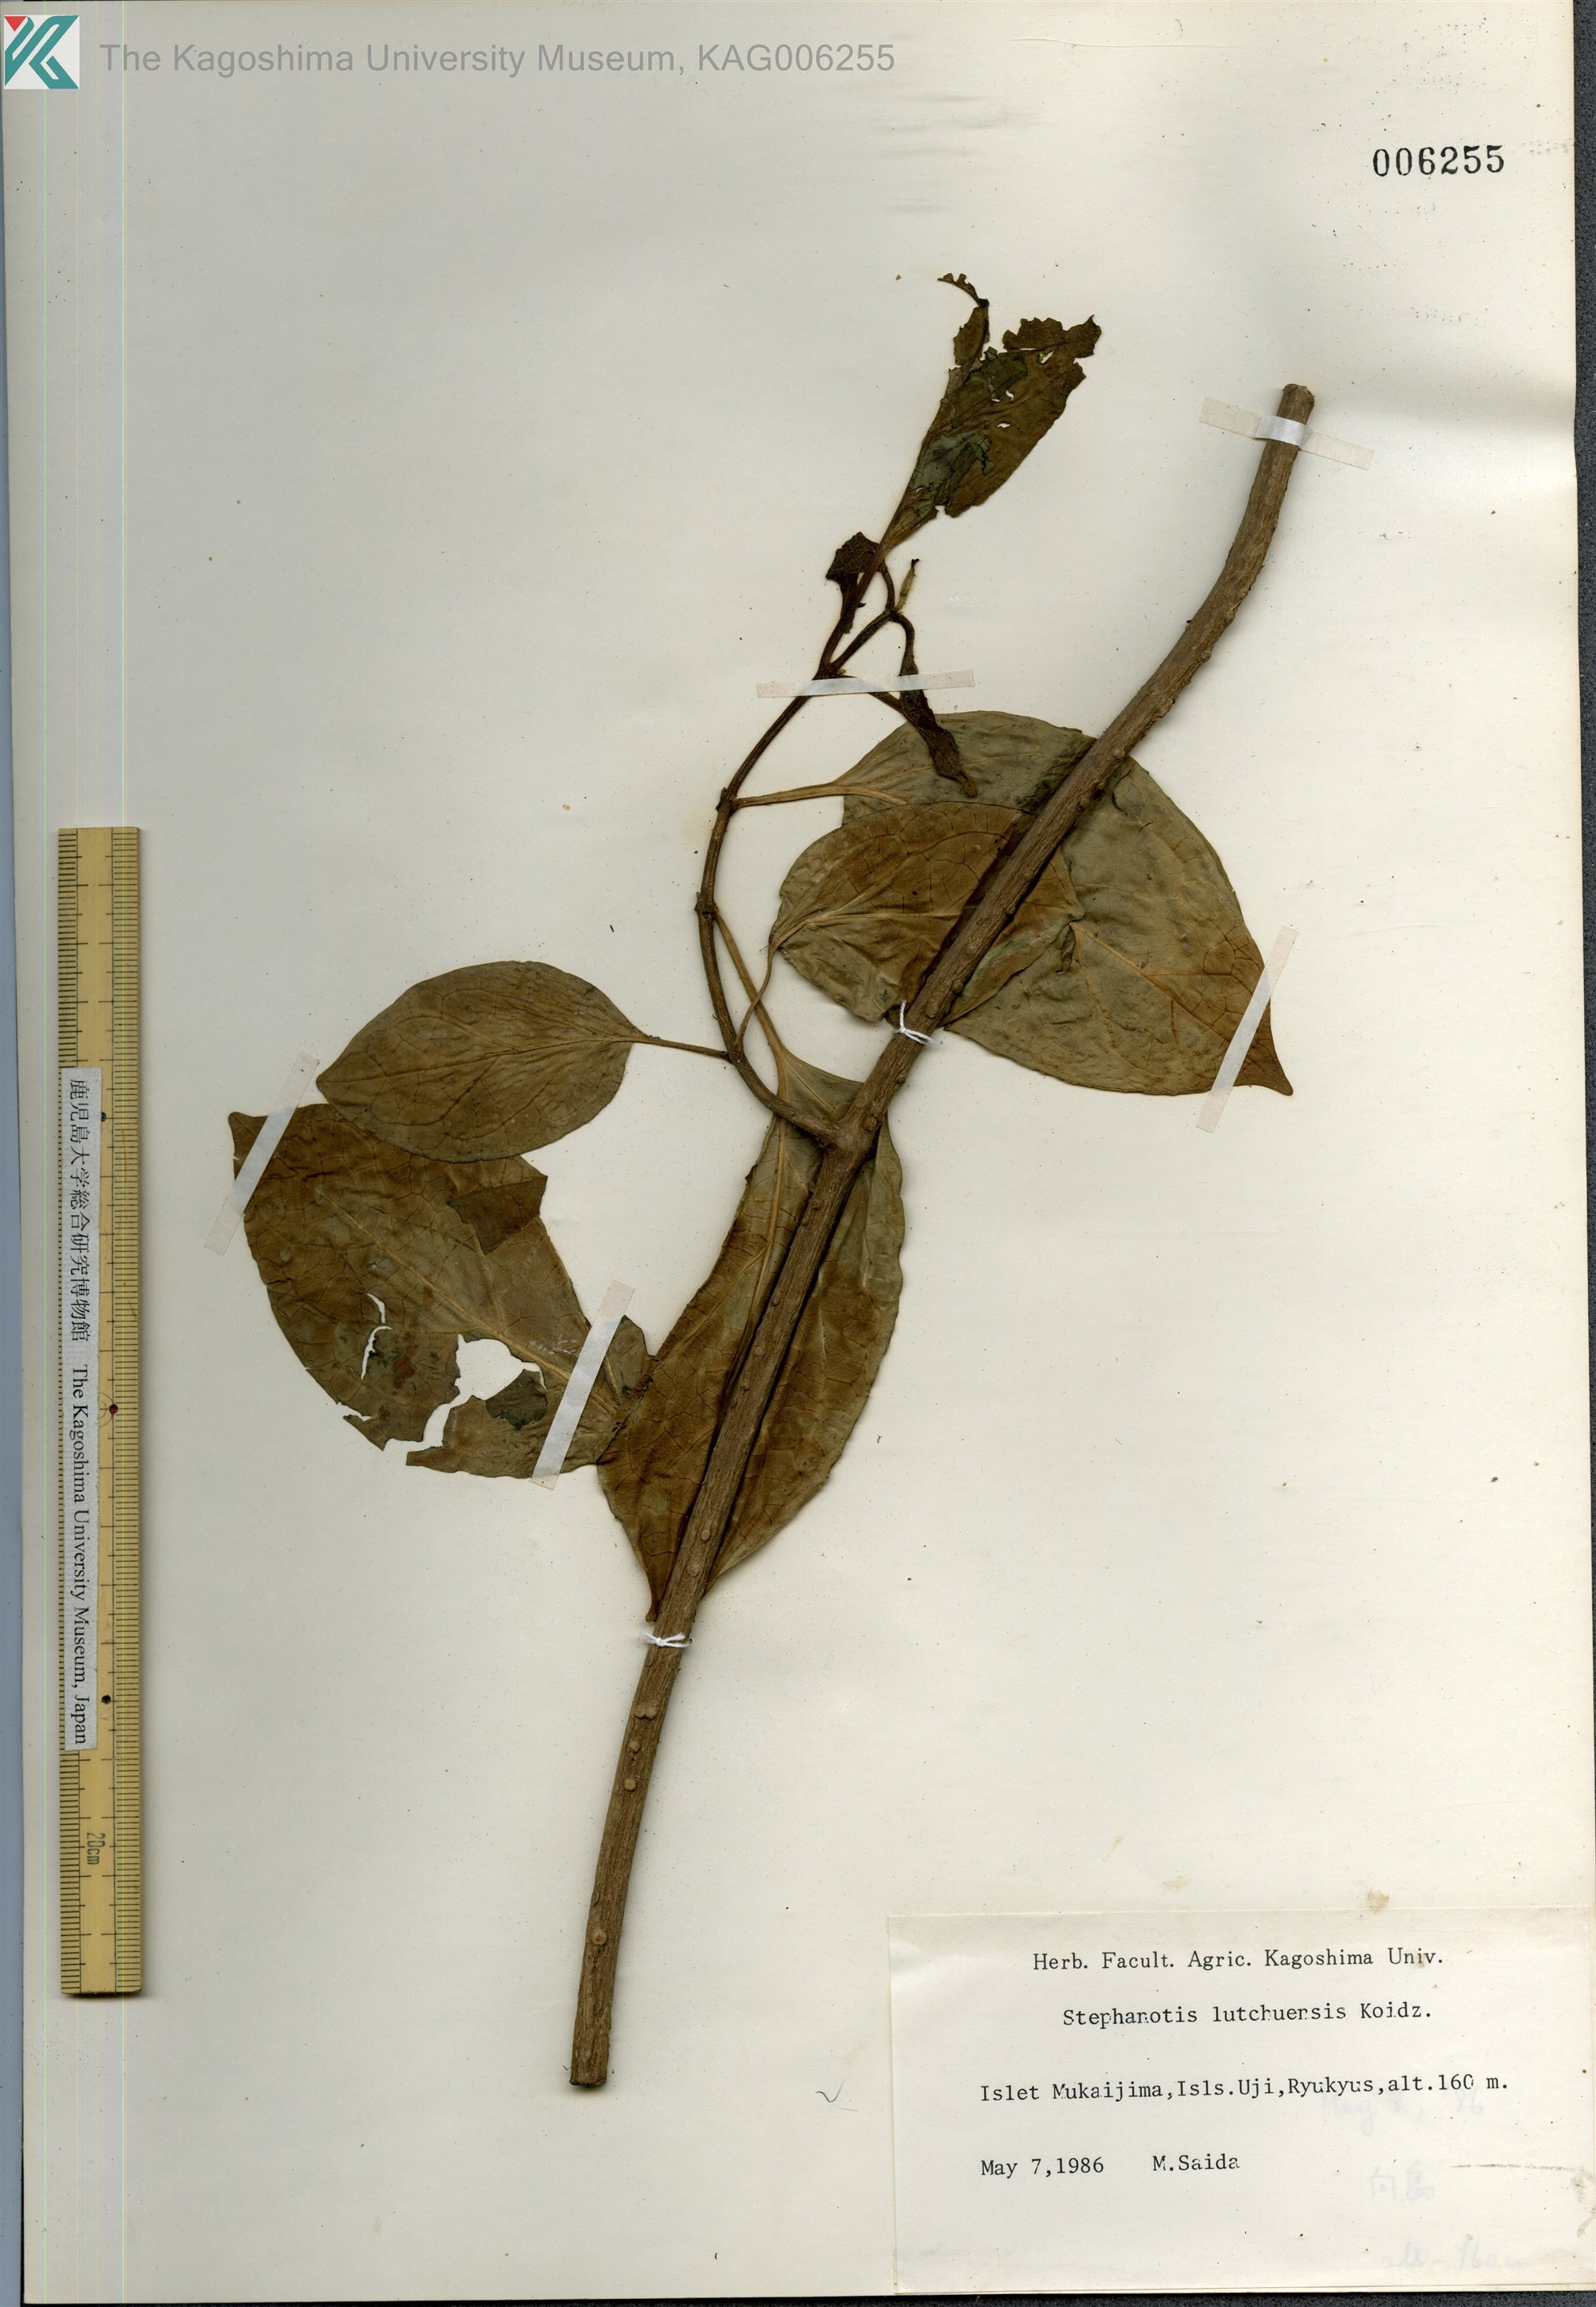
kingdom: Plantae
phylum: Tracheophyta
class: Magnoliopsida
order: Gentianales
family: Apocynaceae
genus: Jasminanthes
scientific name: Jasminanthes mucronata
